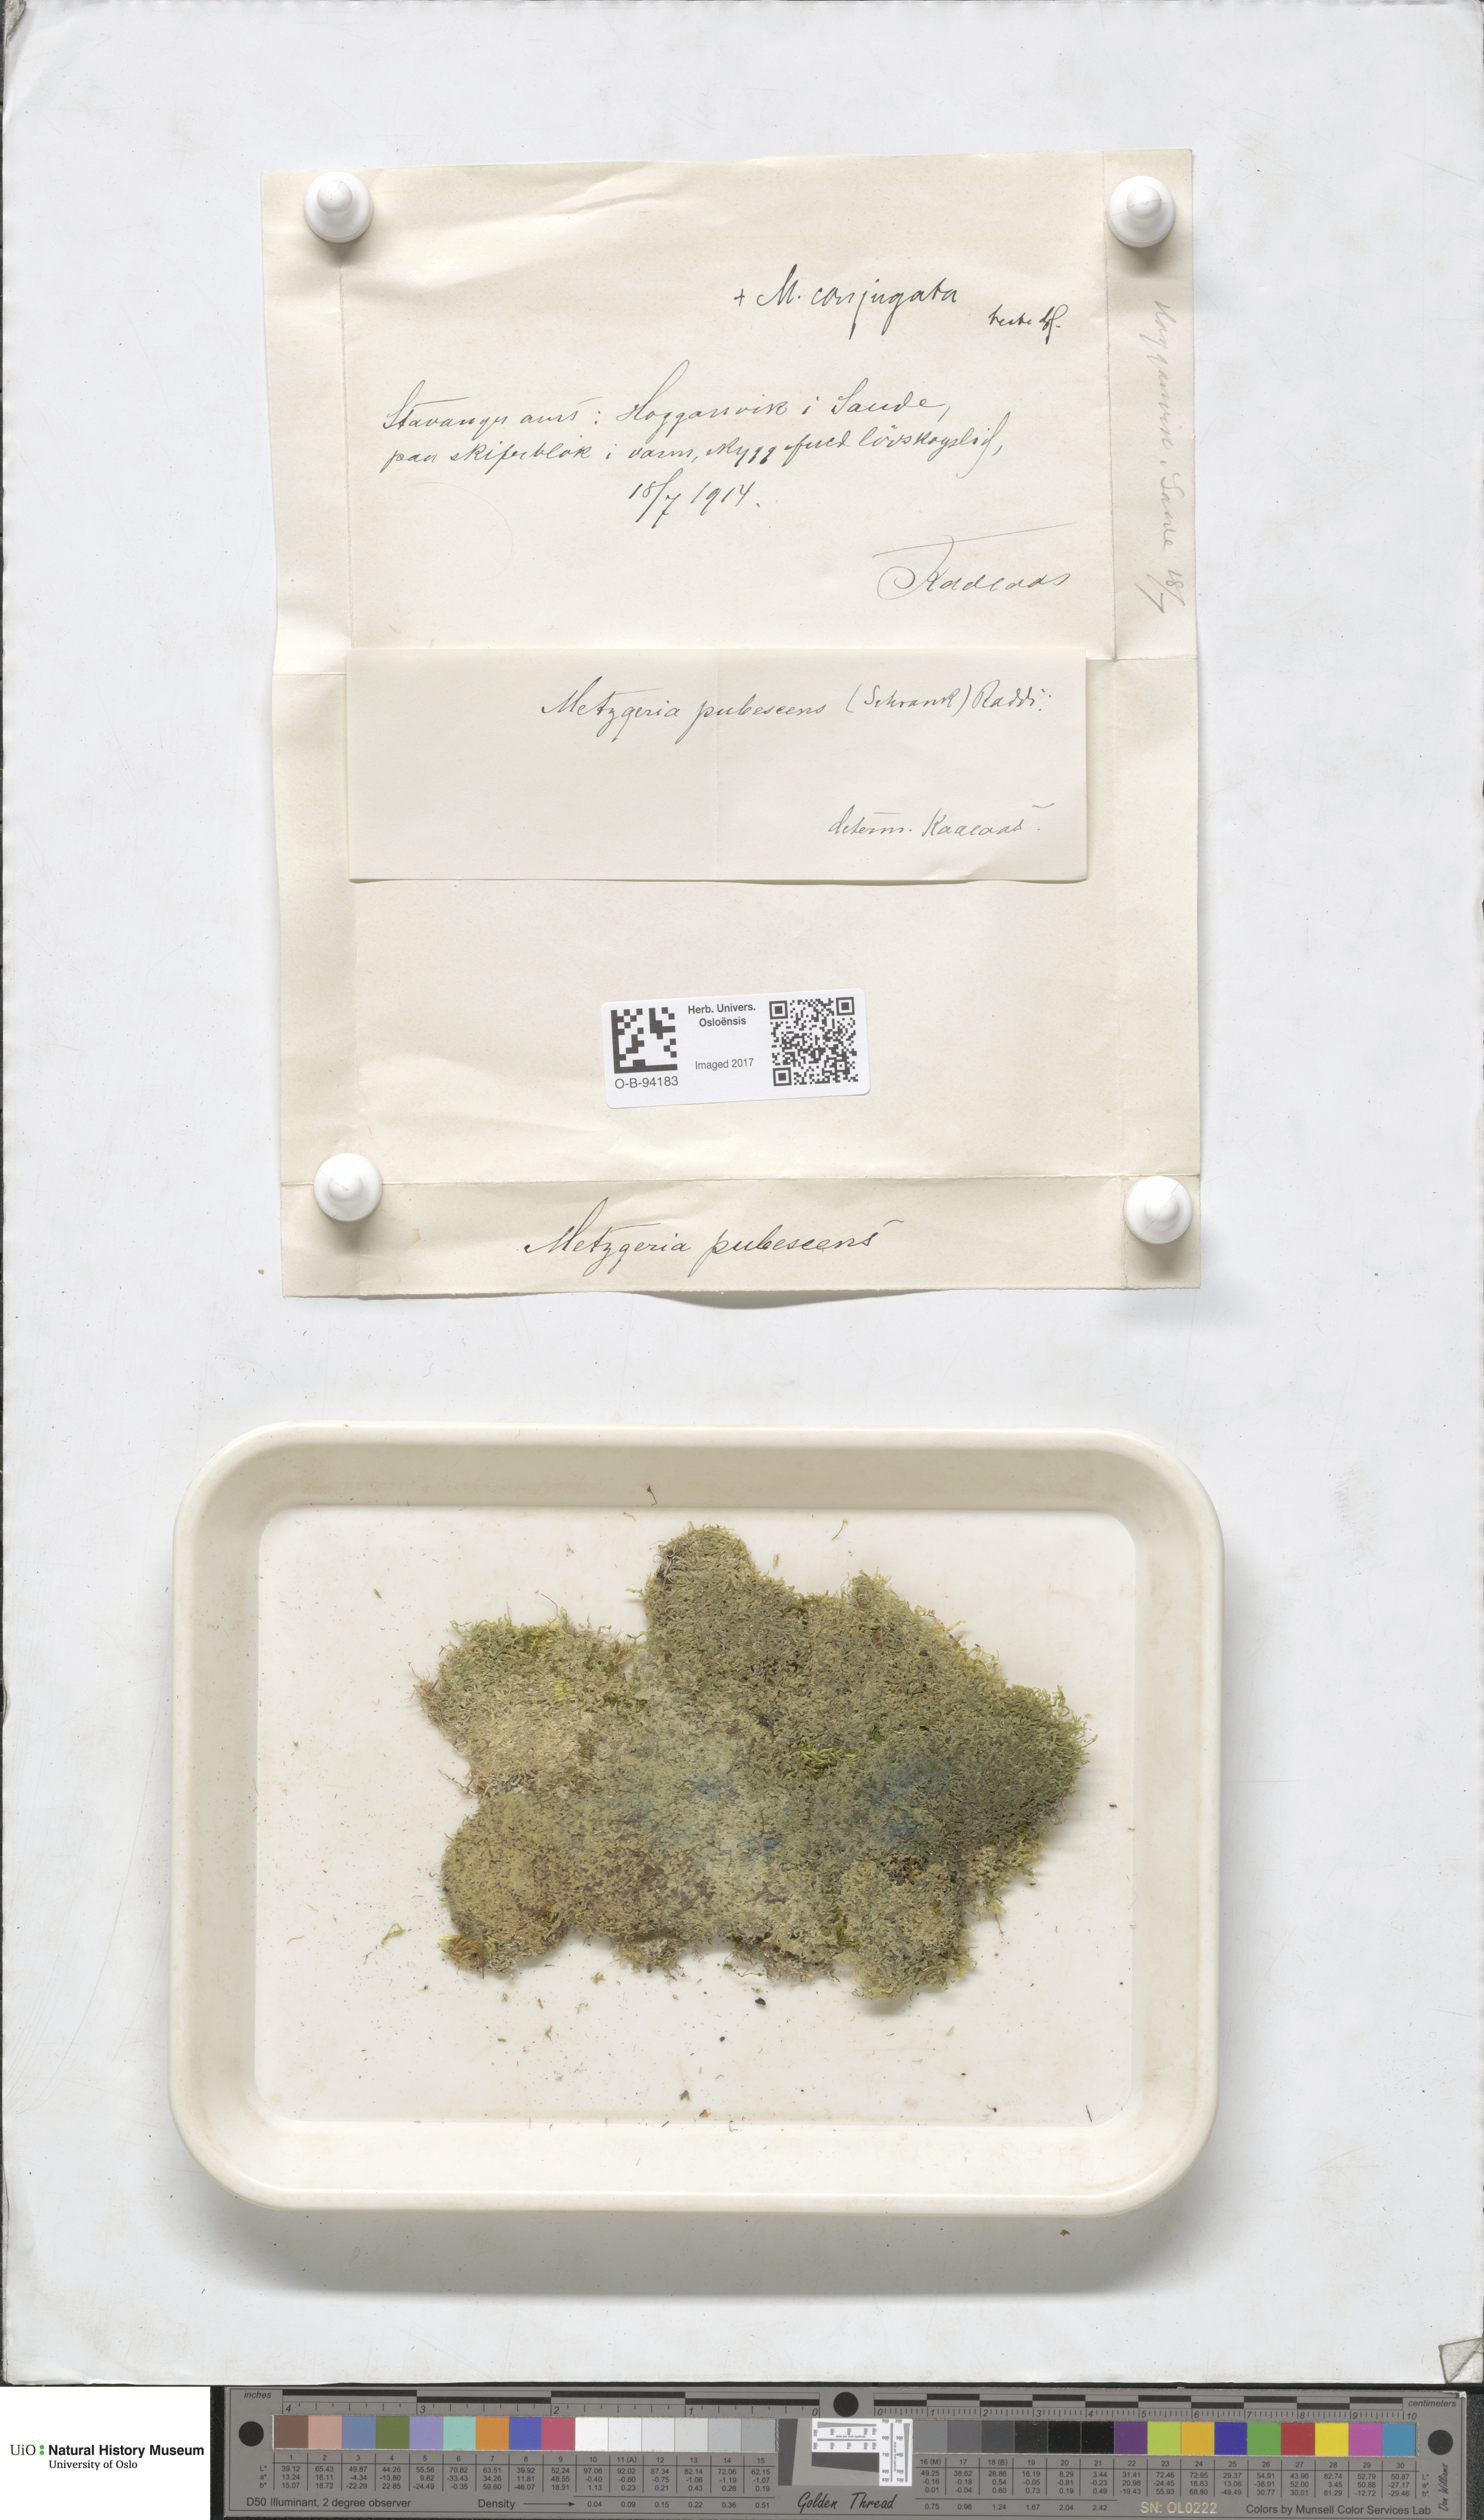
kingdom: Plantae
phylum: Marchantiophyta
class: Jungermanniopsida
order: Metzgeriales
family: Metzgeriaceae
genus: Metzgeria
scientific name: Metzgeria conjugata
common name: Rock veilwort
